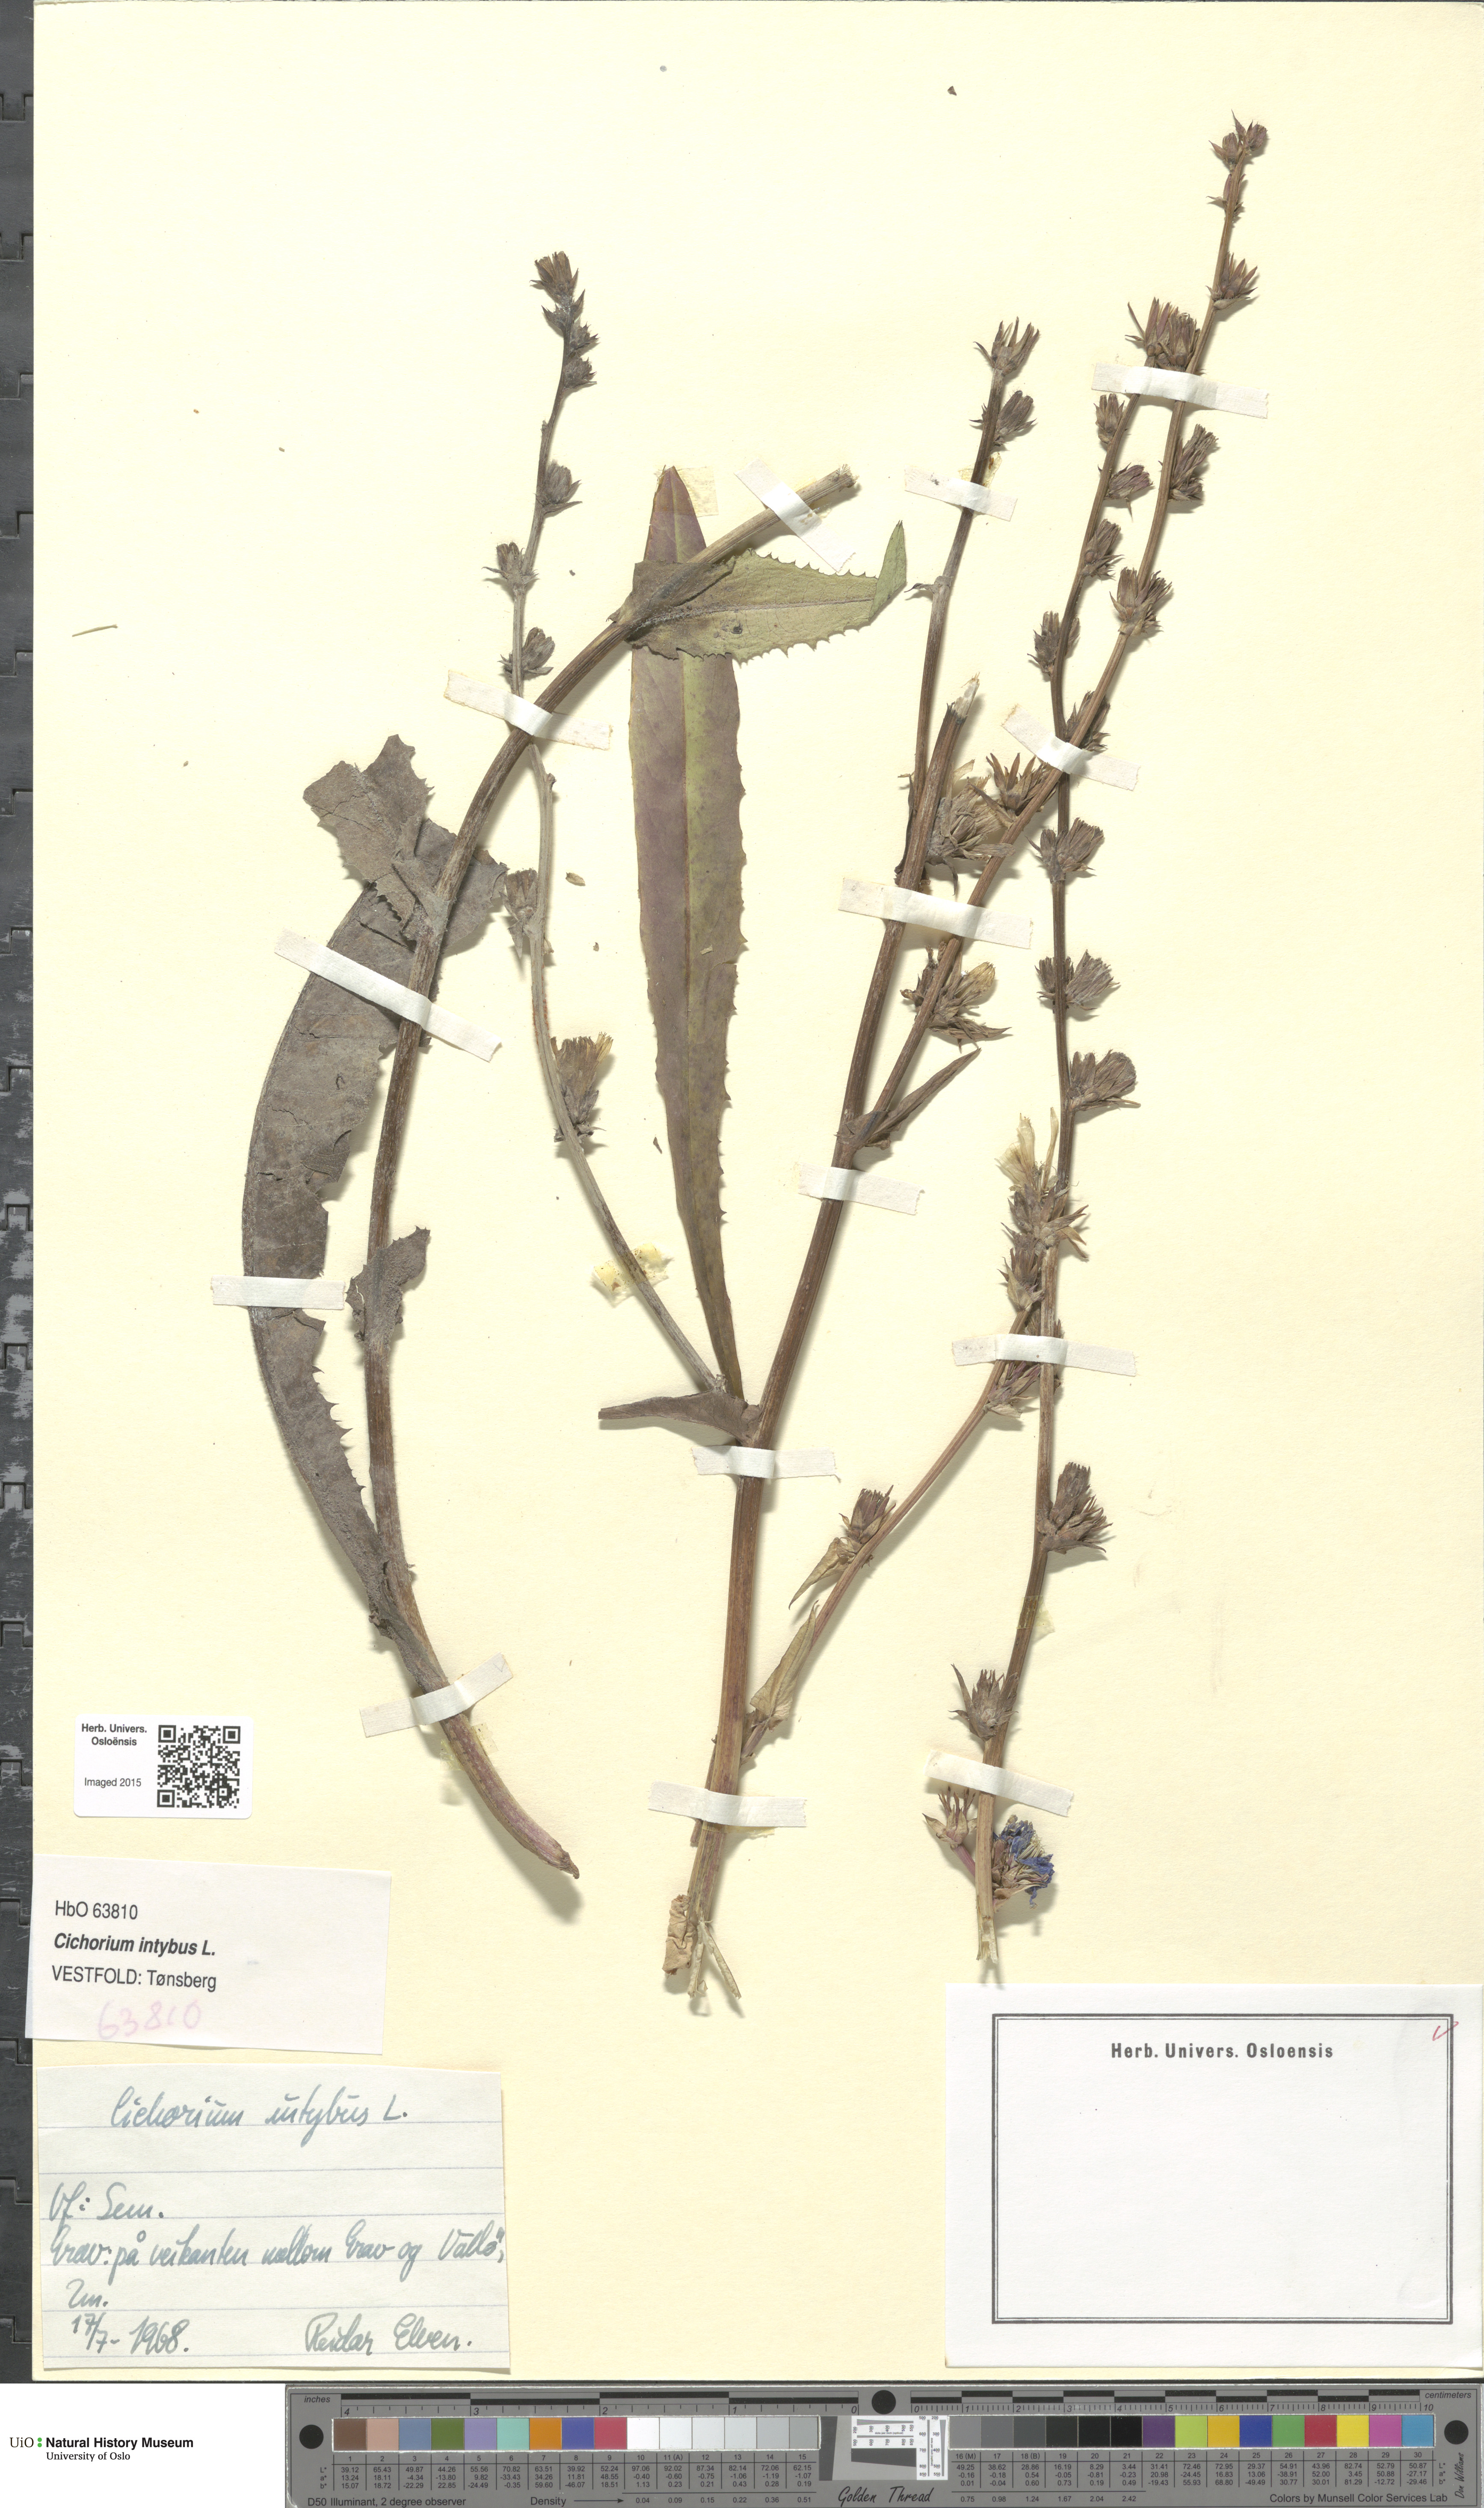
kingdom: Plantae
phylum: Tracheophyta
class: Magnoliopsida
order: Asterales
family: Asteraceae
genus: Cichorium
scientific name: Cichorium intybus
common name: Chicory
